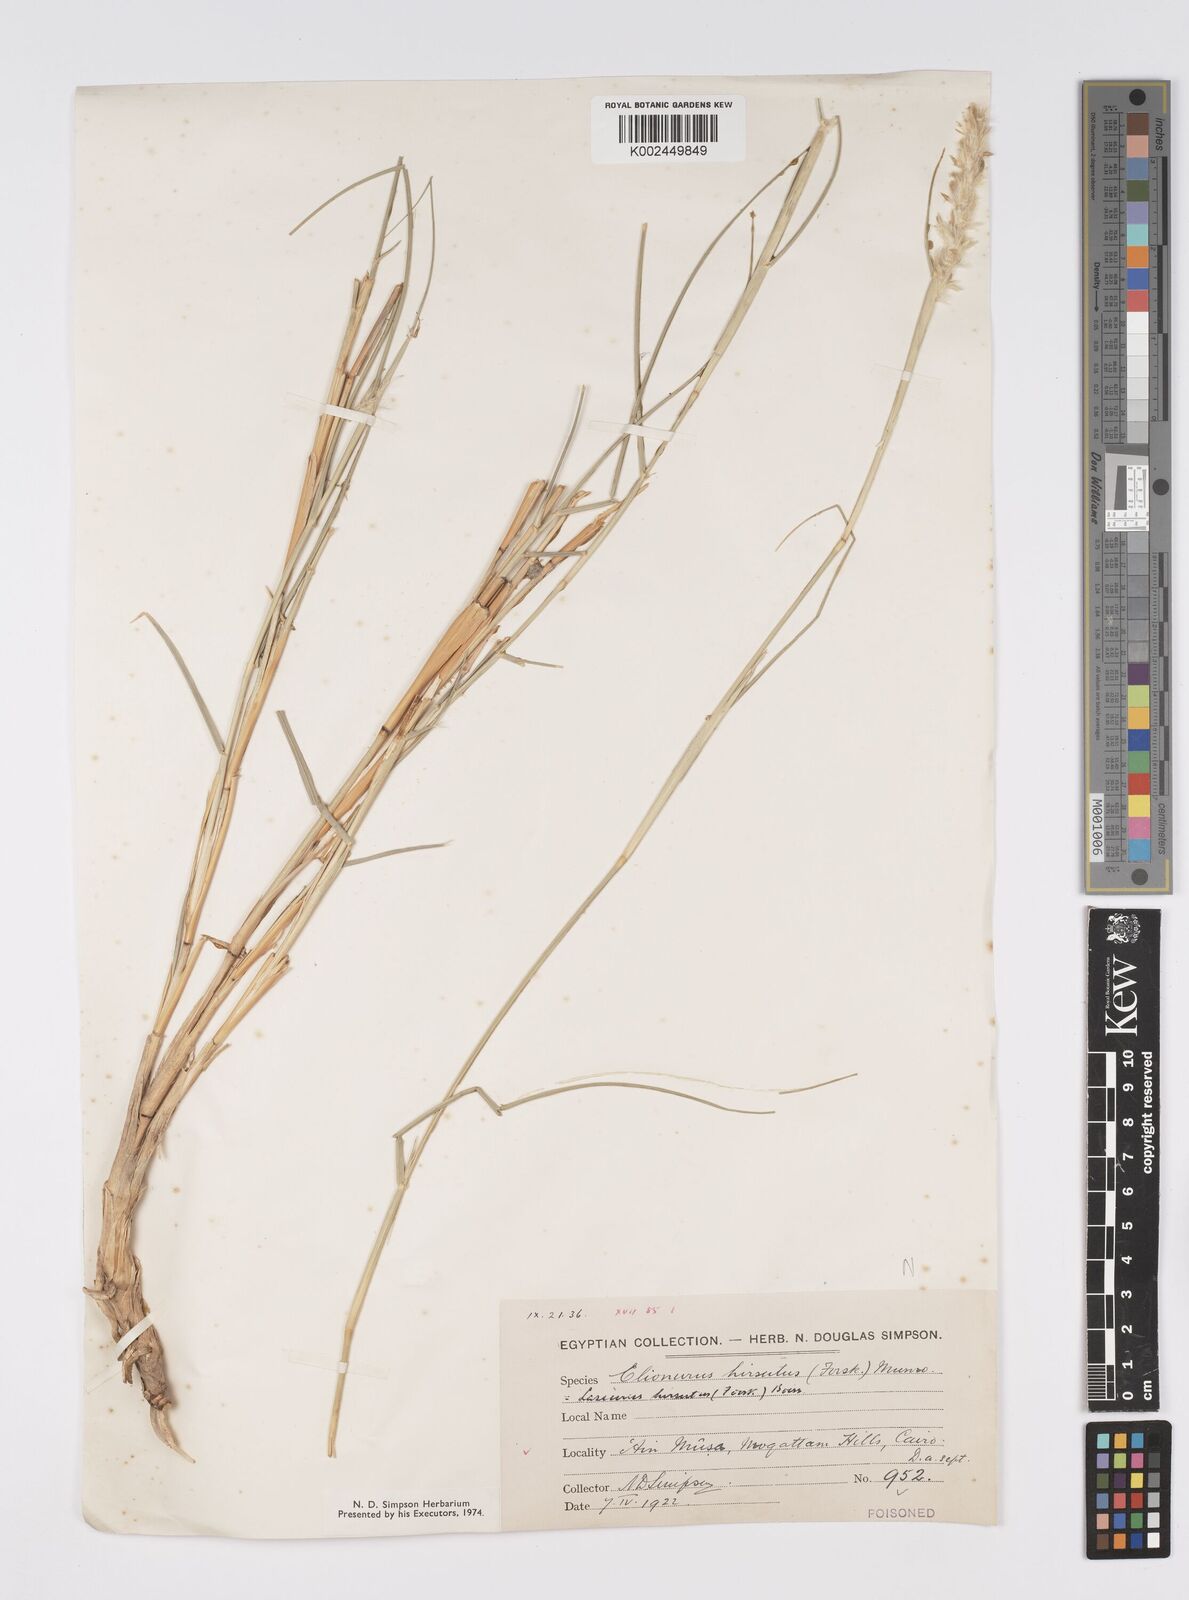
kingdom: Plantae
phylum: Tracheophyta
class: Liliopsida
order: Poales
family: Poaceae
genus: Lasiurus
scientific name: Lasiurus scindicus
